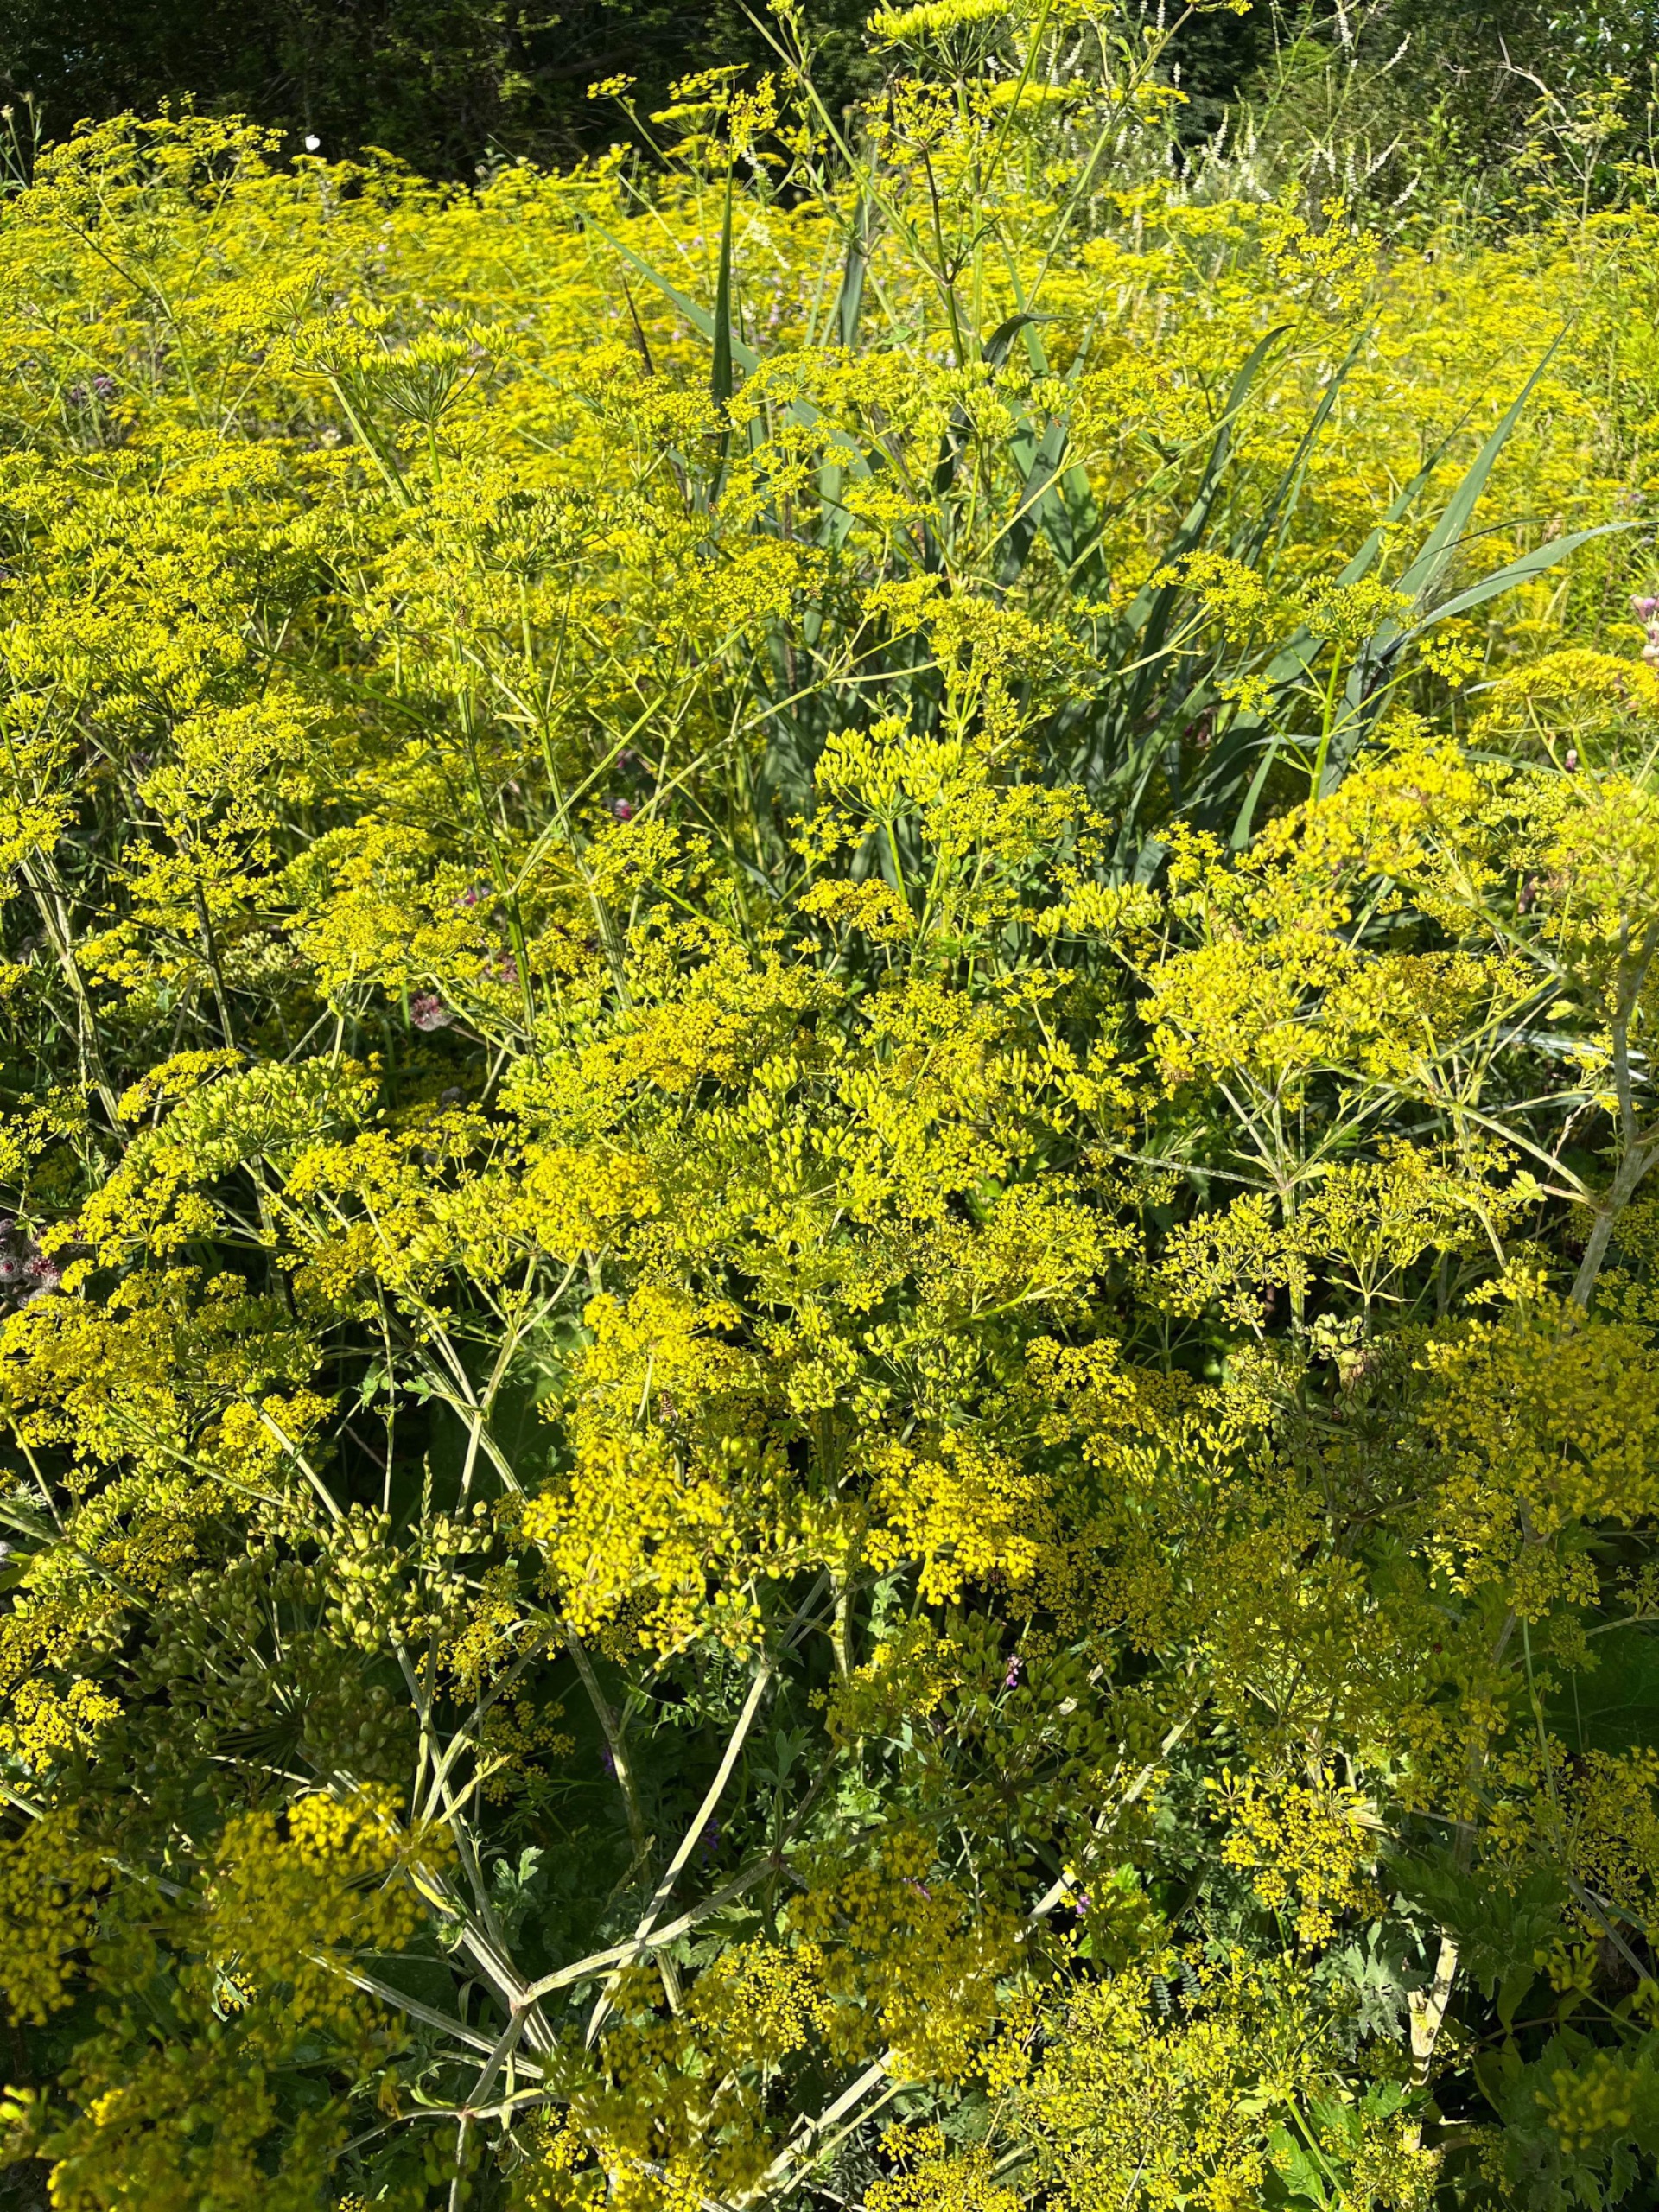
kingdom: Plantae
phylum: Tracheophyta
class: Magnoliopsida
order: Apiales
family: Apiaceae
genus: Pastinaca
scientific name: Pastinaca sativa
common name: Pastinak
